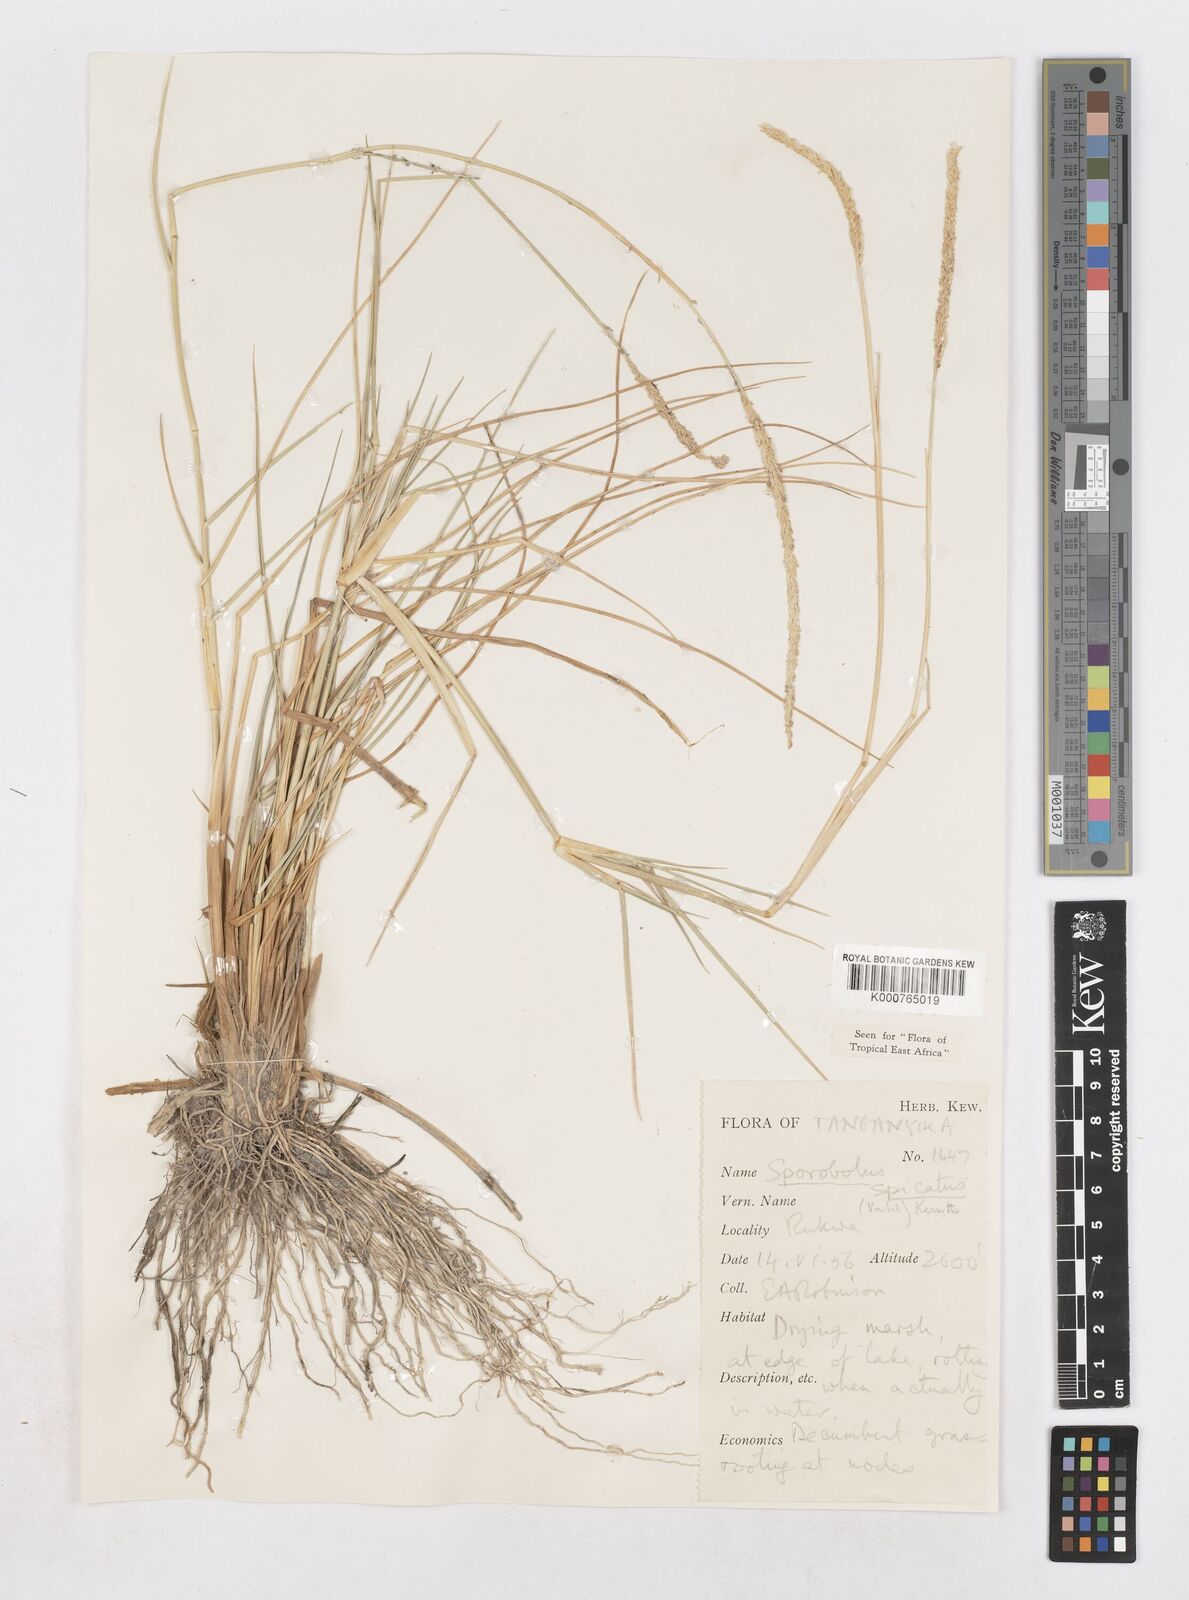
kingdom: Plantae
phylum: Tracheophyta
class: Liliopsida
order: Poales
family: Poaceae
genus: Sporobolus
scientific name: Sporobolus spicatus
